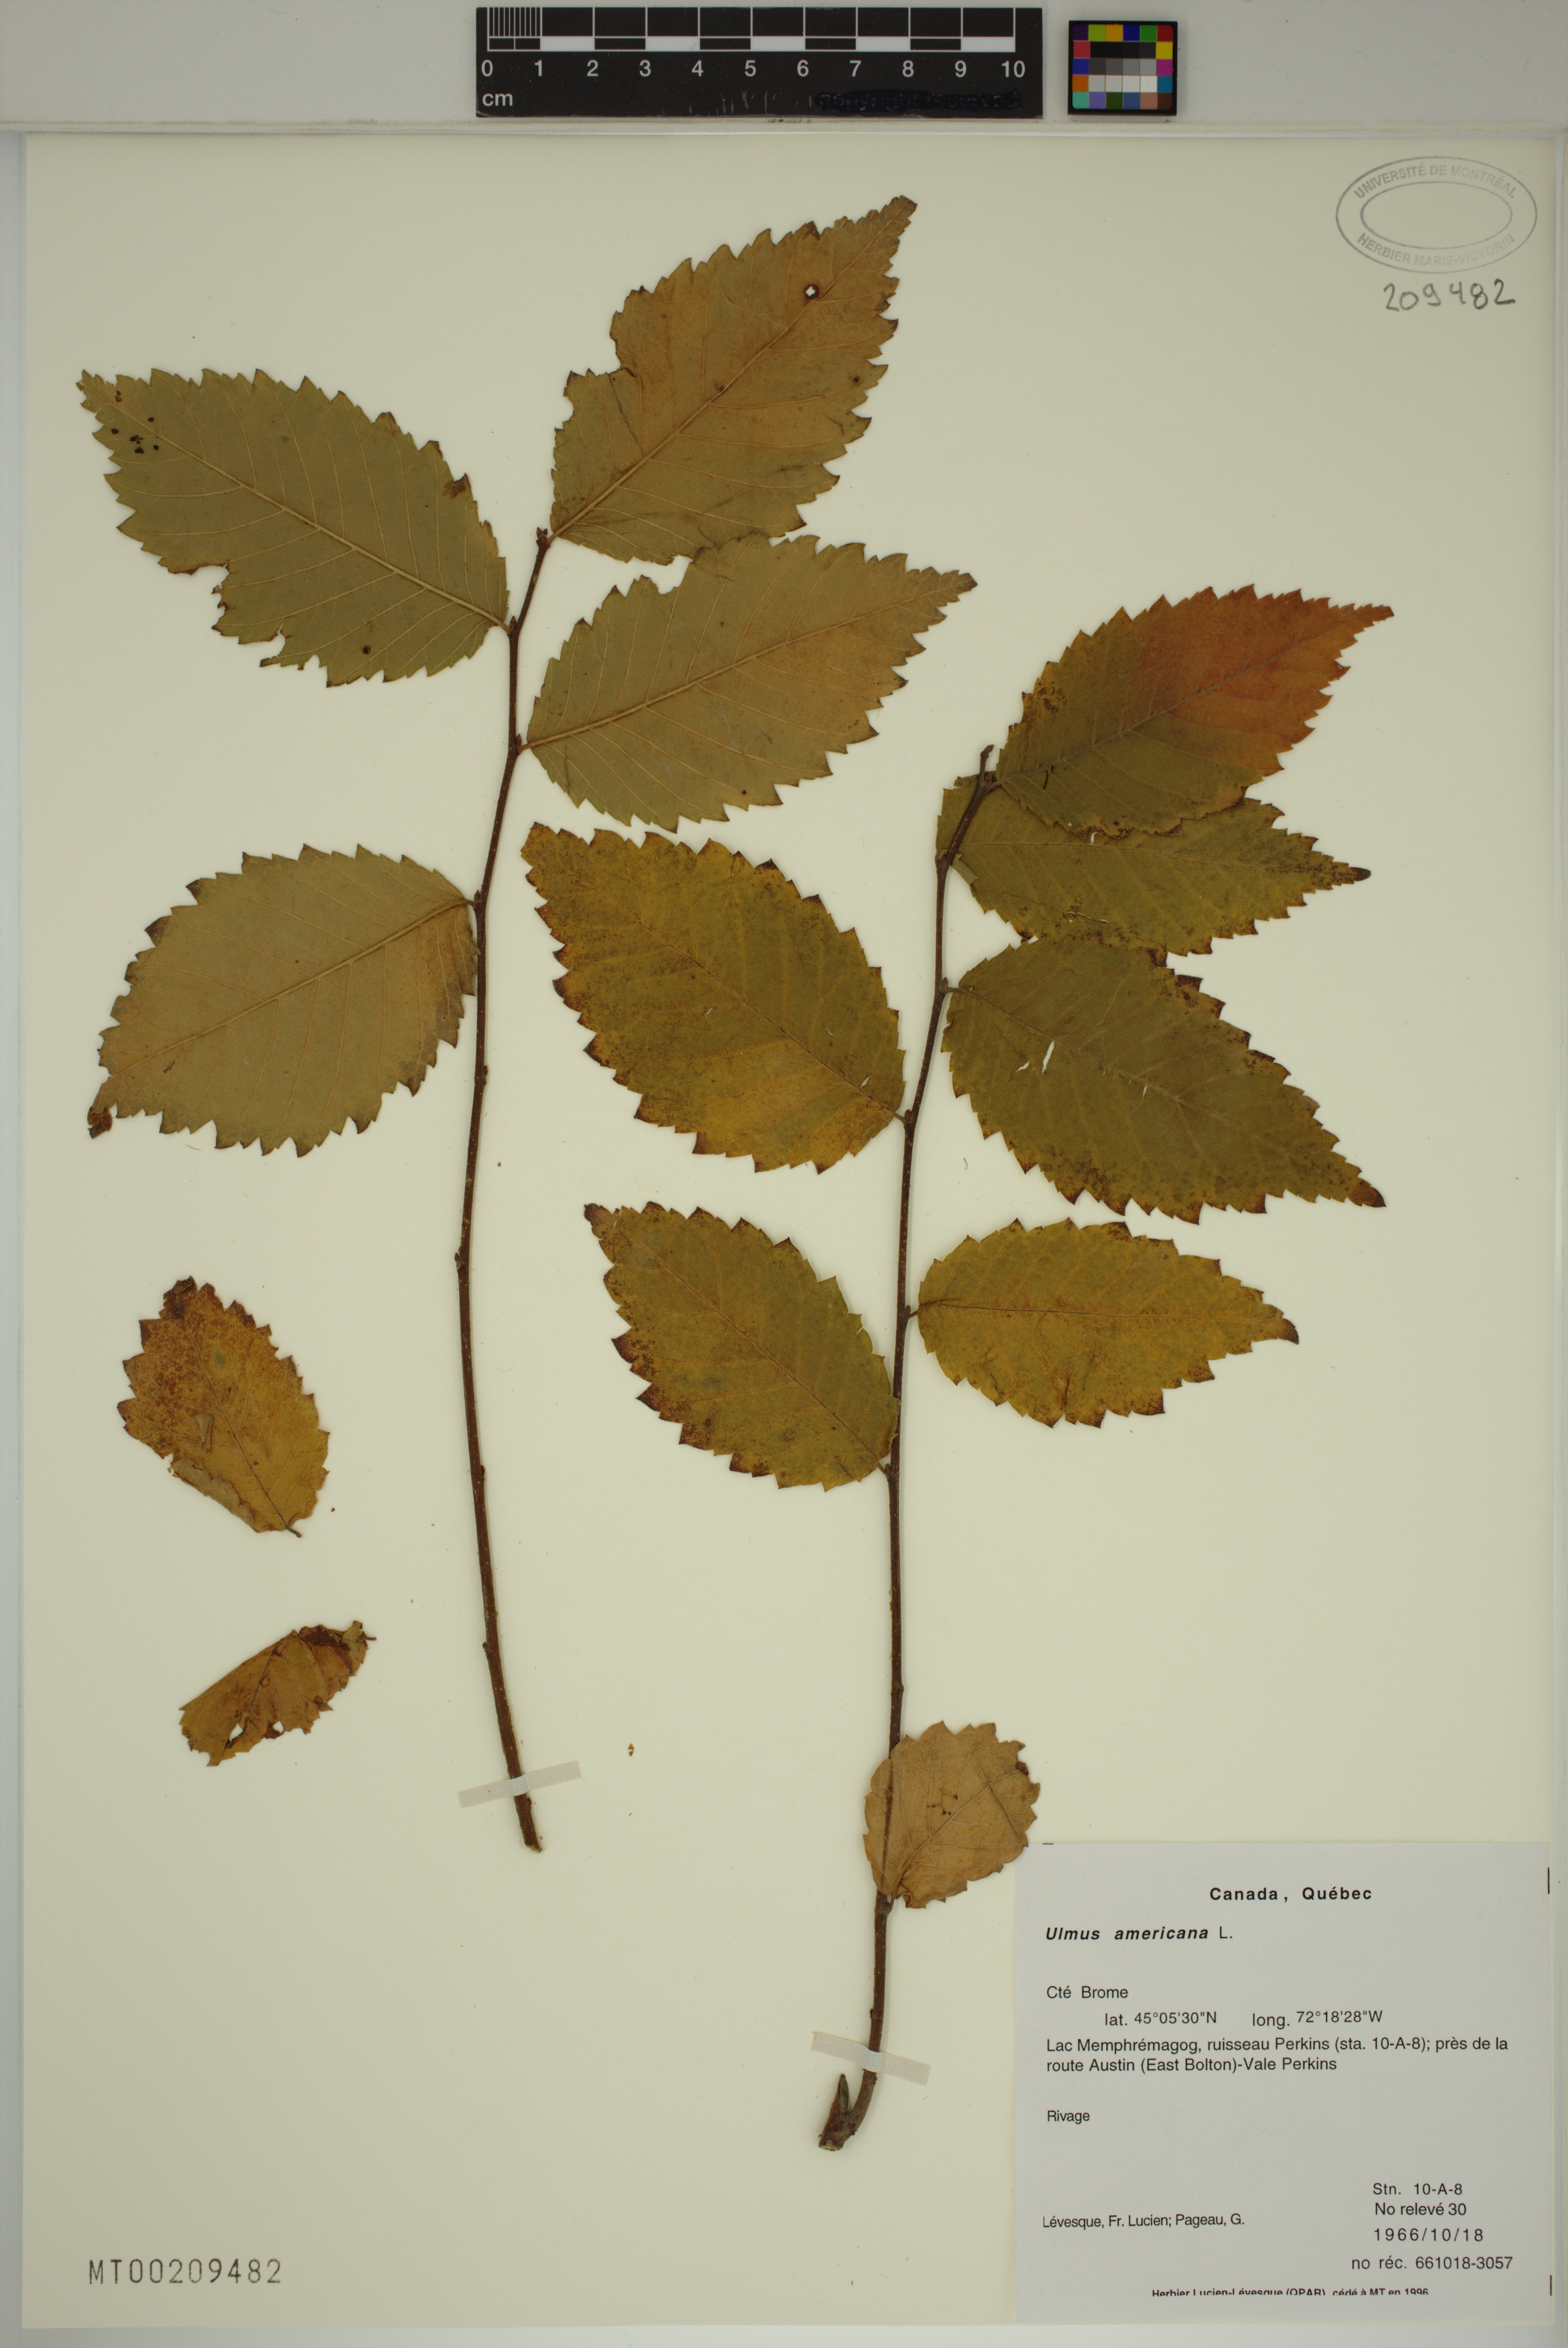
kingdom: Plantae
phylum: Tracheophyta
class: Magnoliopsida
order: Rosales
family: Ulmaceae
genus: Ulmus
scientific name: Ulmus americana
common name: American elm
